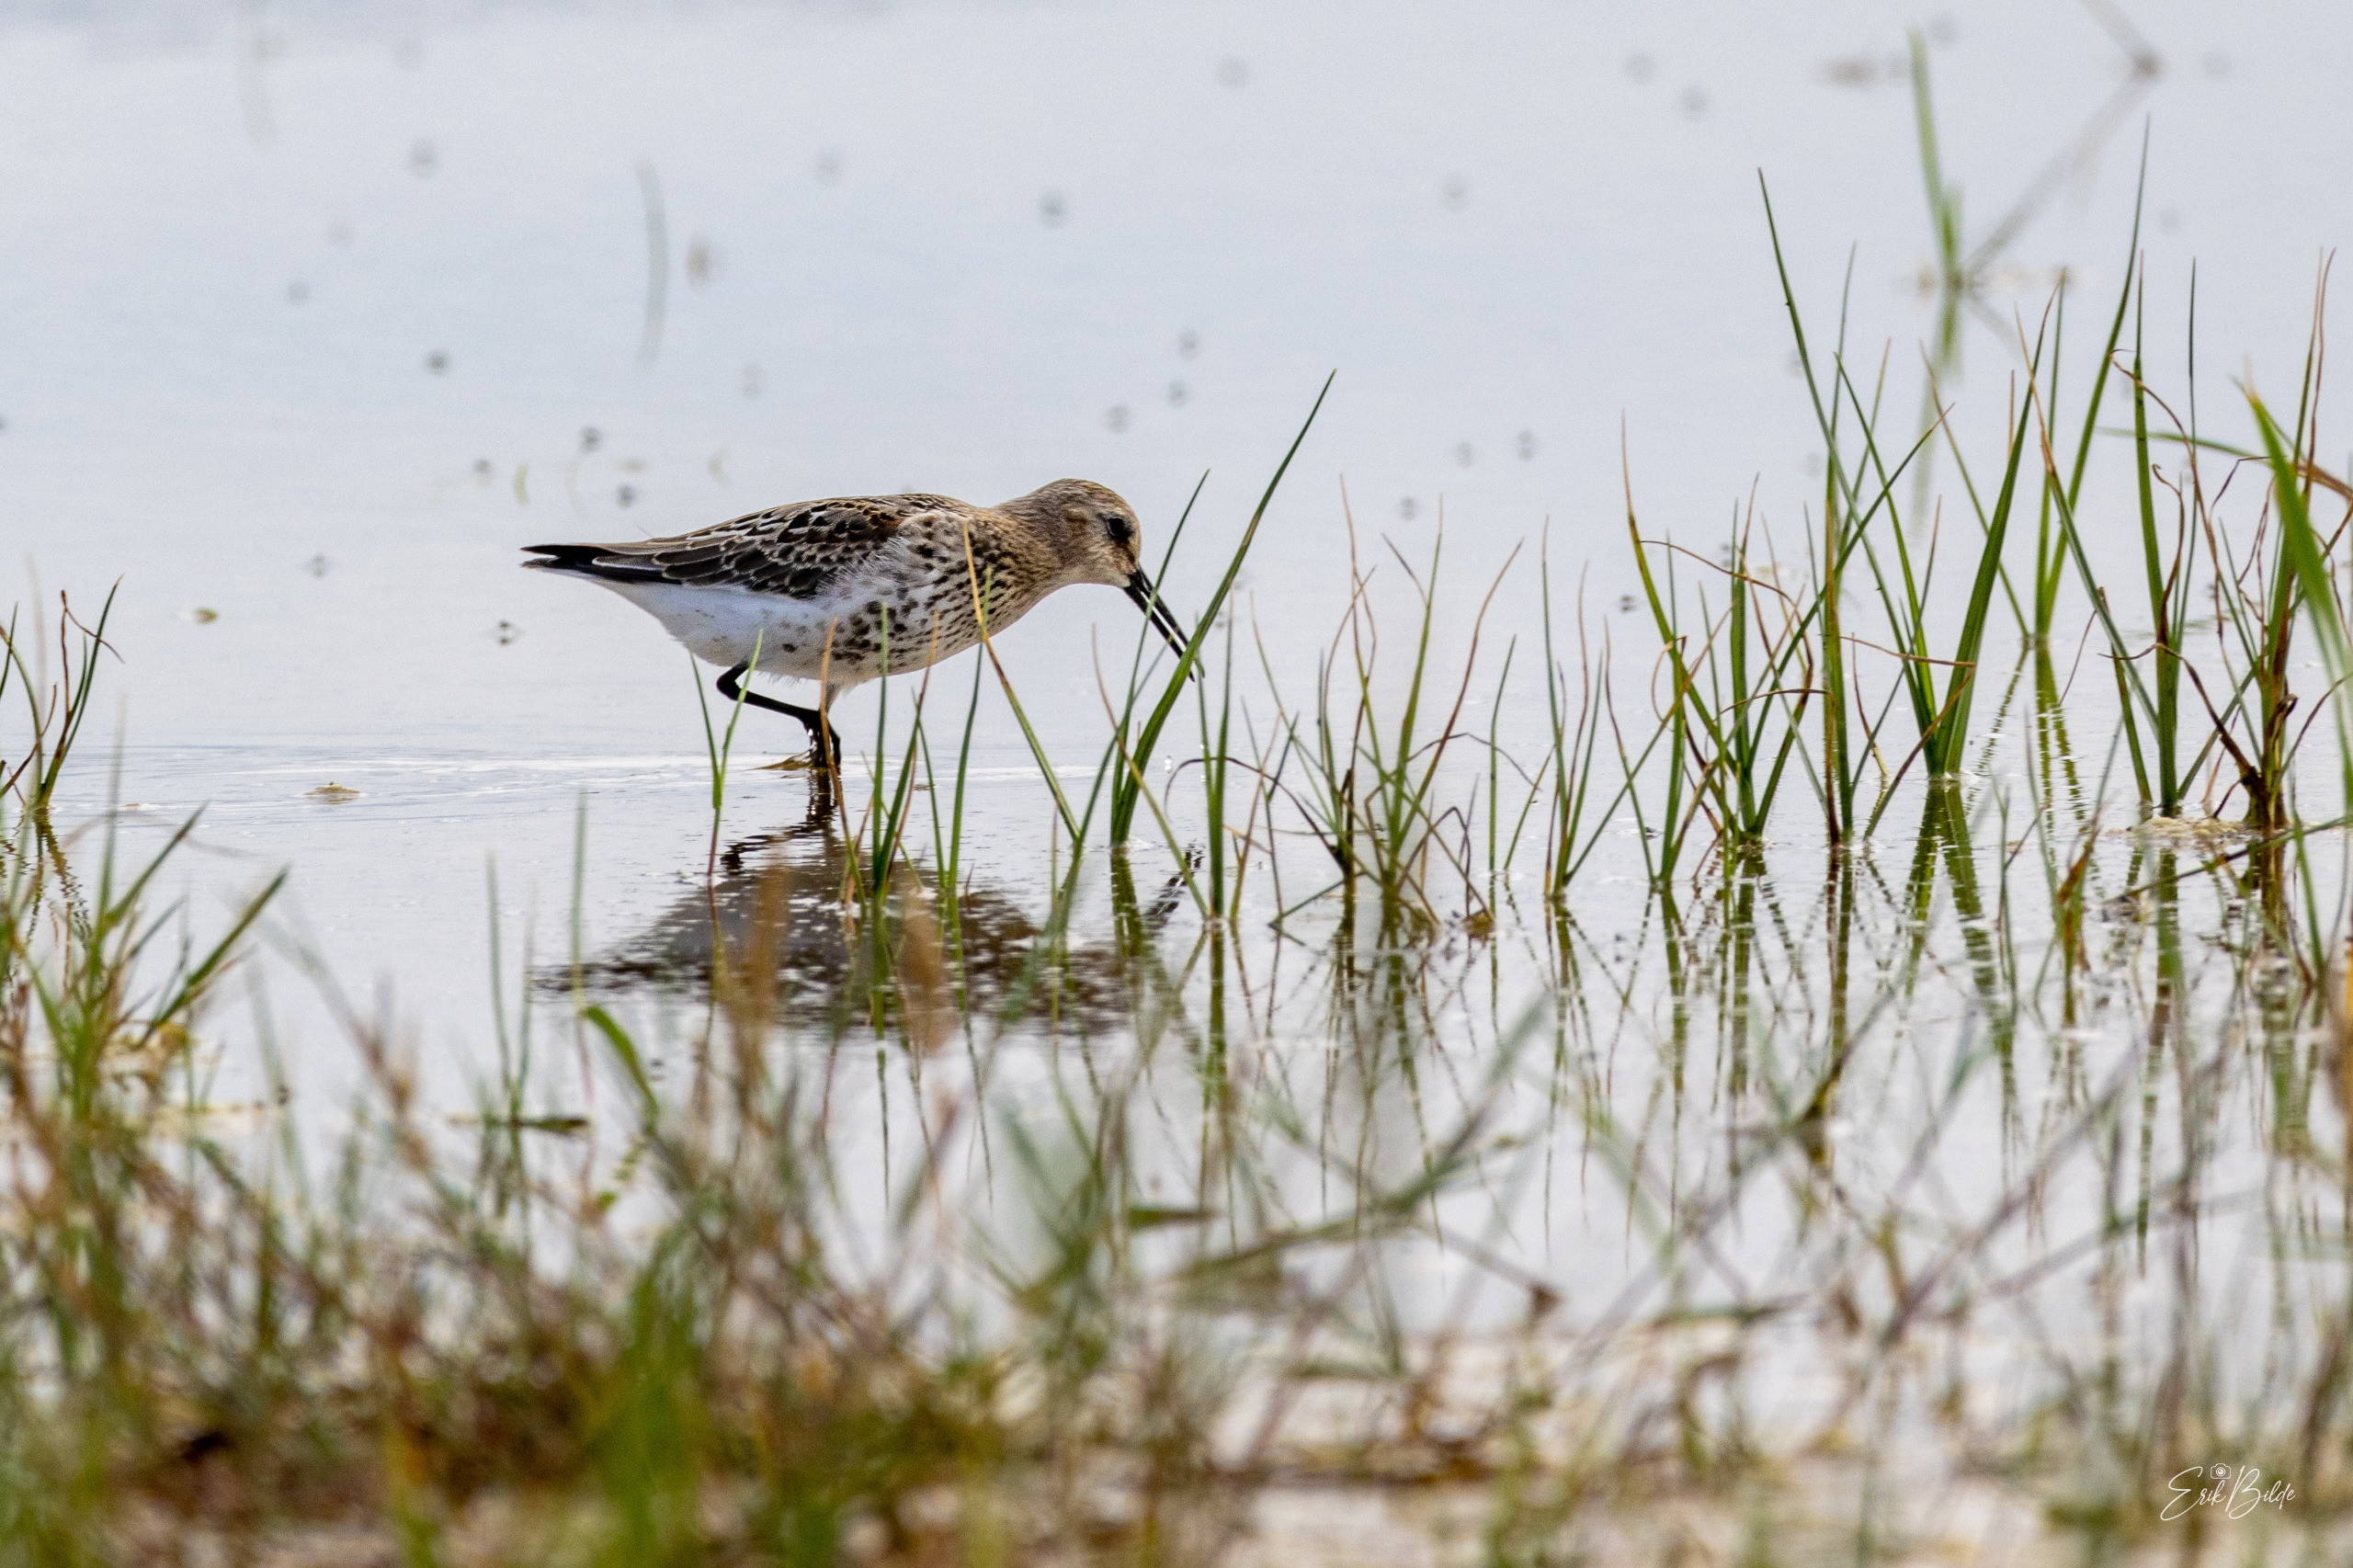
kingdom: Animalia
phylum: Chordata
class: Aves
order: Charadriiformes
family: Scolopacidae
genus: Calidris
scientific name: Calidris alpina
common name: Almindelig ryle
